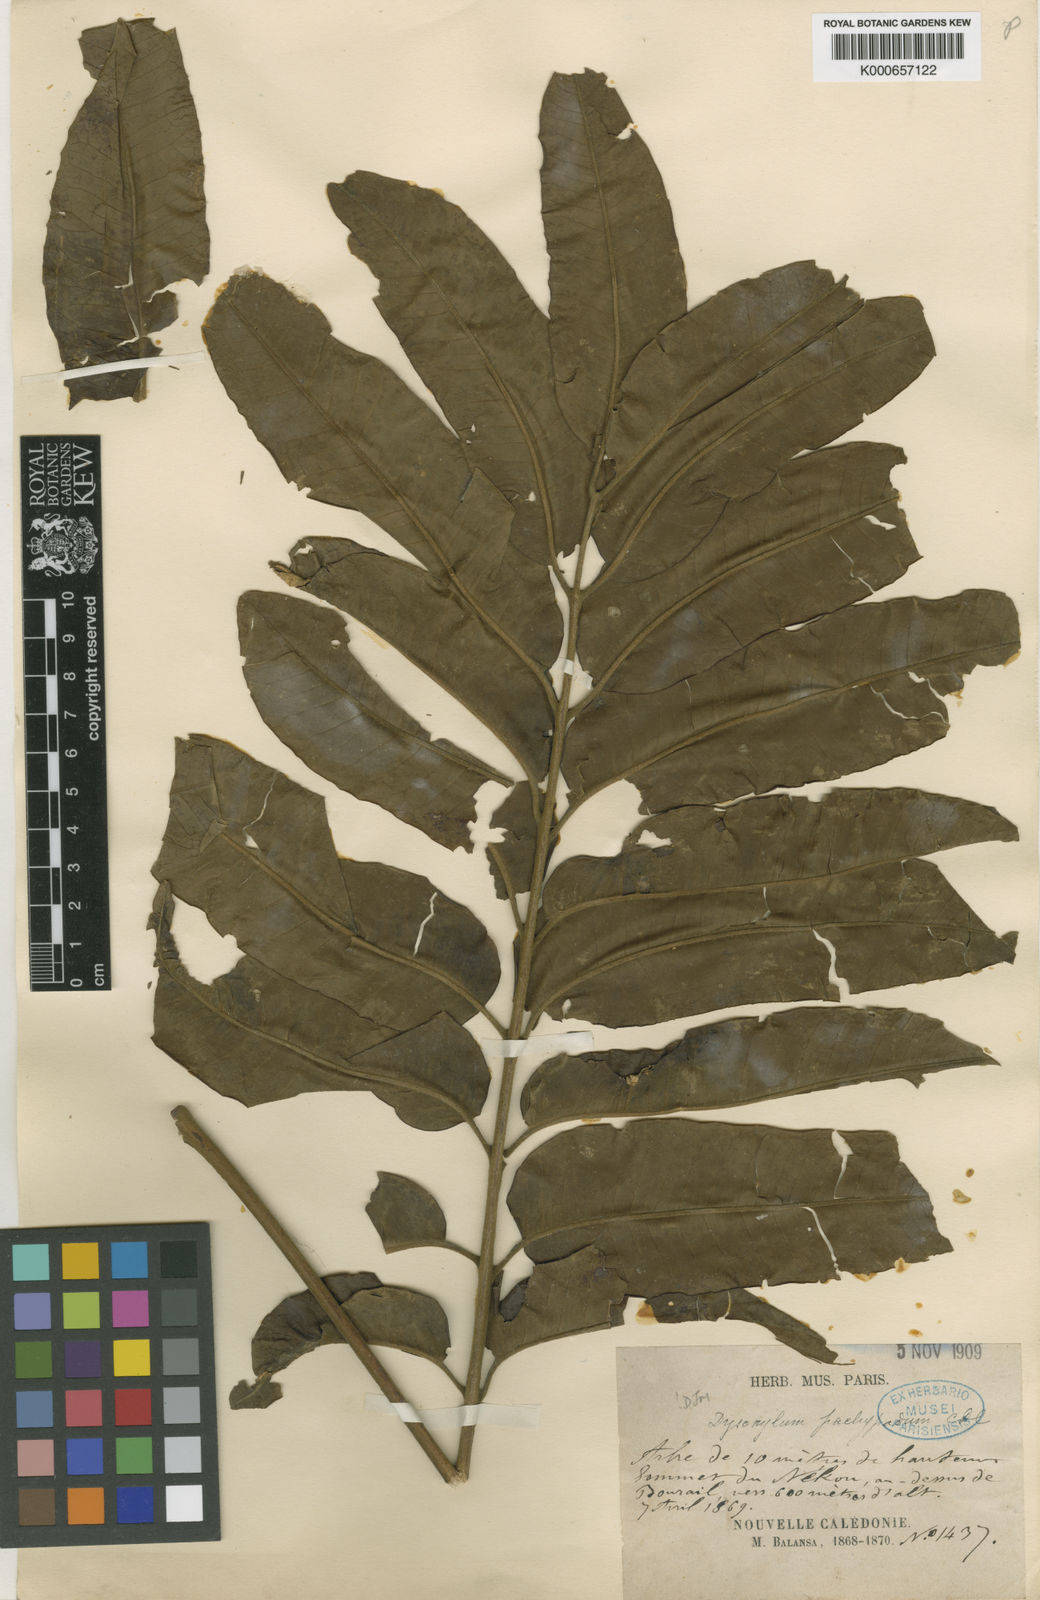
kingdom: Plantae
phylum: Tracheophyta
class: Magnoliopsida
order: Sapindales
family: Meliaceae
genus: Didymocheton
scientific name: Didymocheton pachypodus
